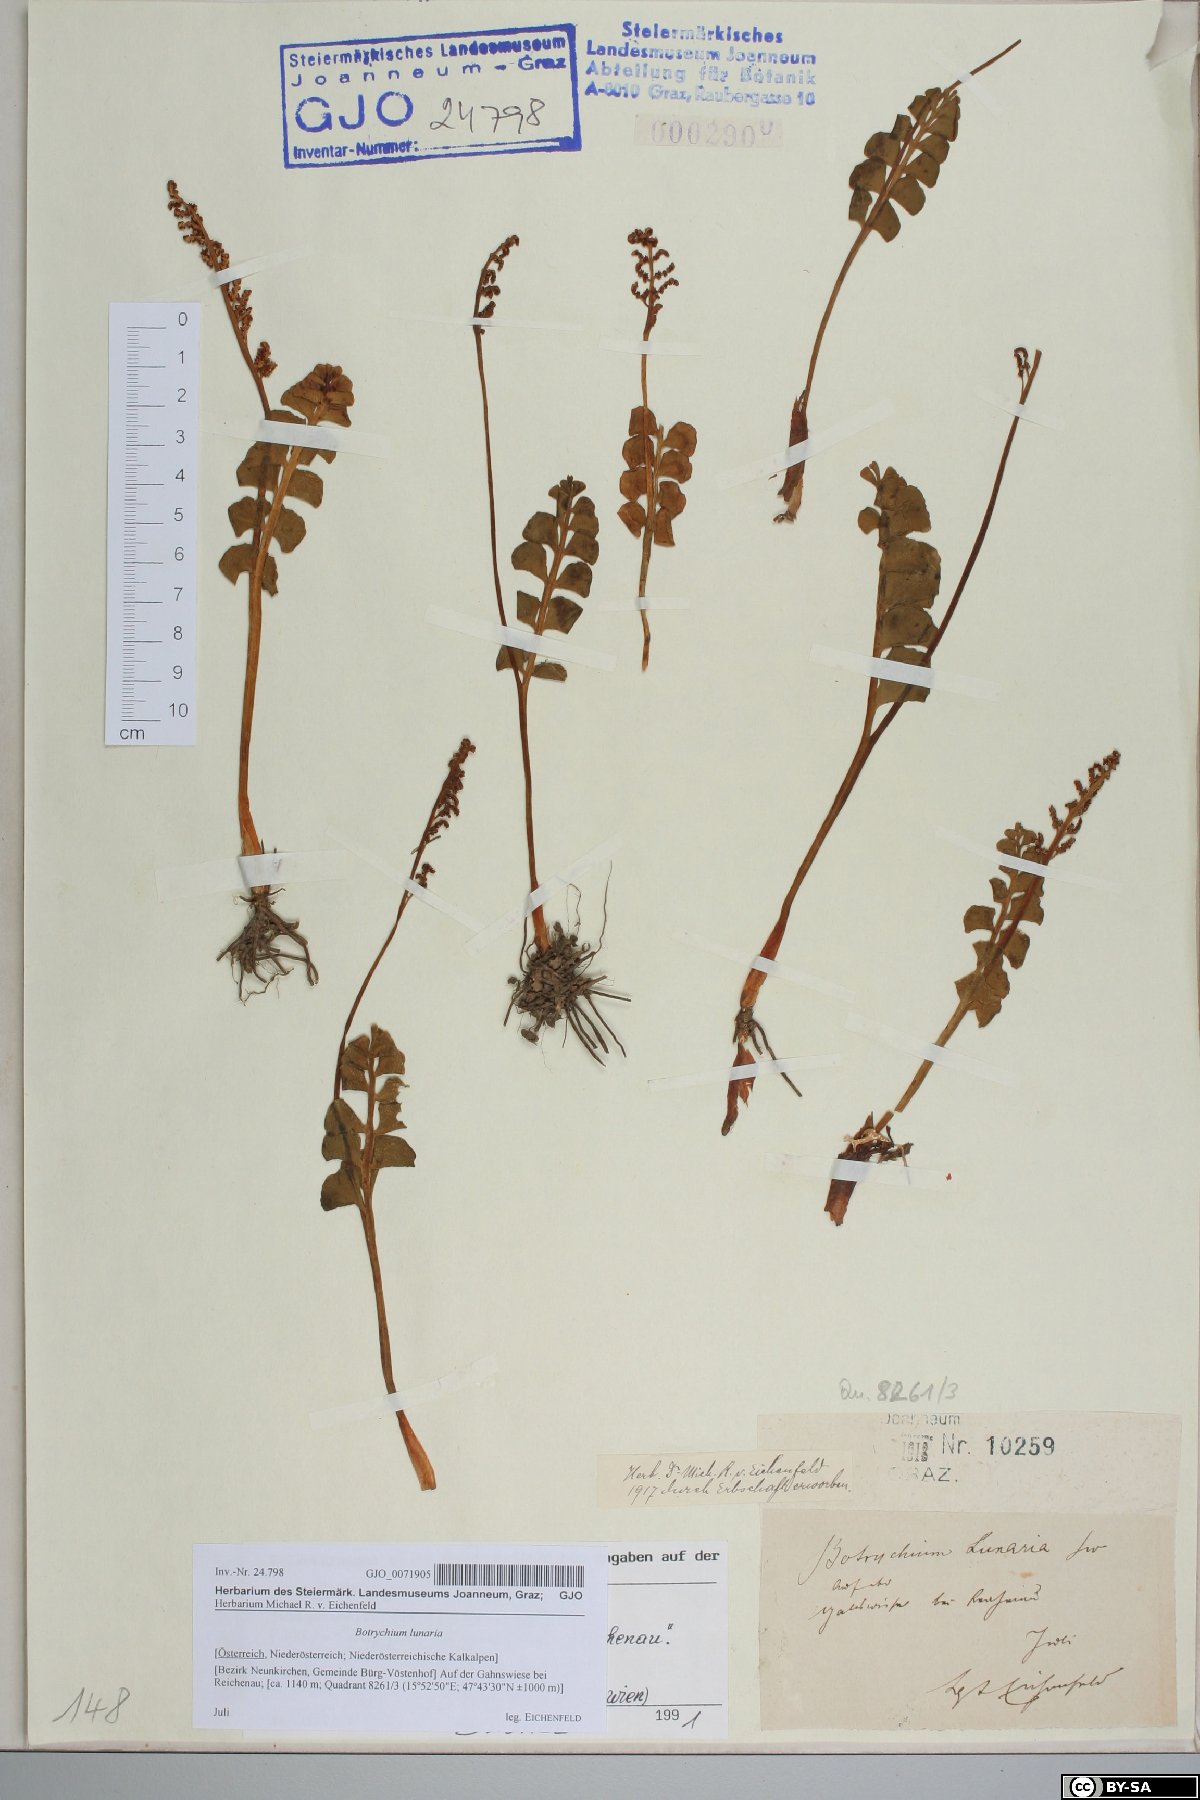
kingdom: Plantae
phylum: Tracheophyta
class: Polypodiopsida
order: Ophioglossales
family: Ophioglossaceae
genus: Botrychium
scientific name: Botrychium lunaria
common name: Moonwort
